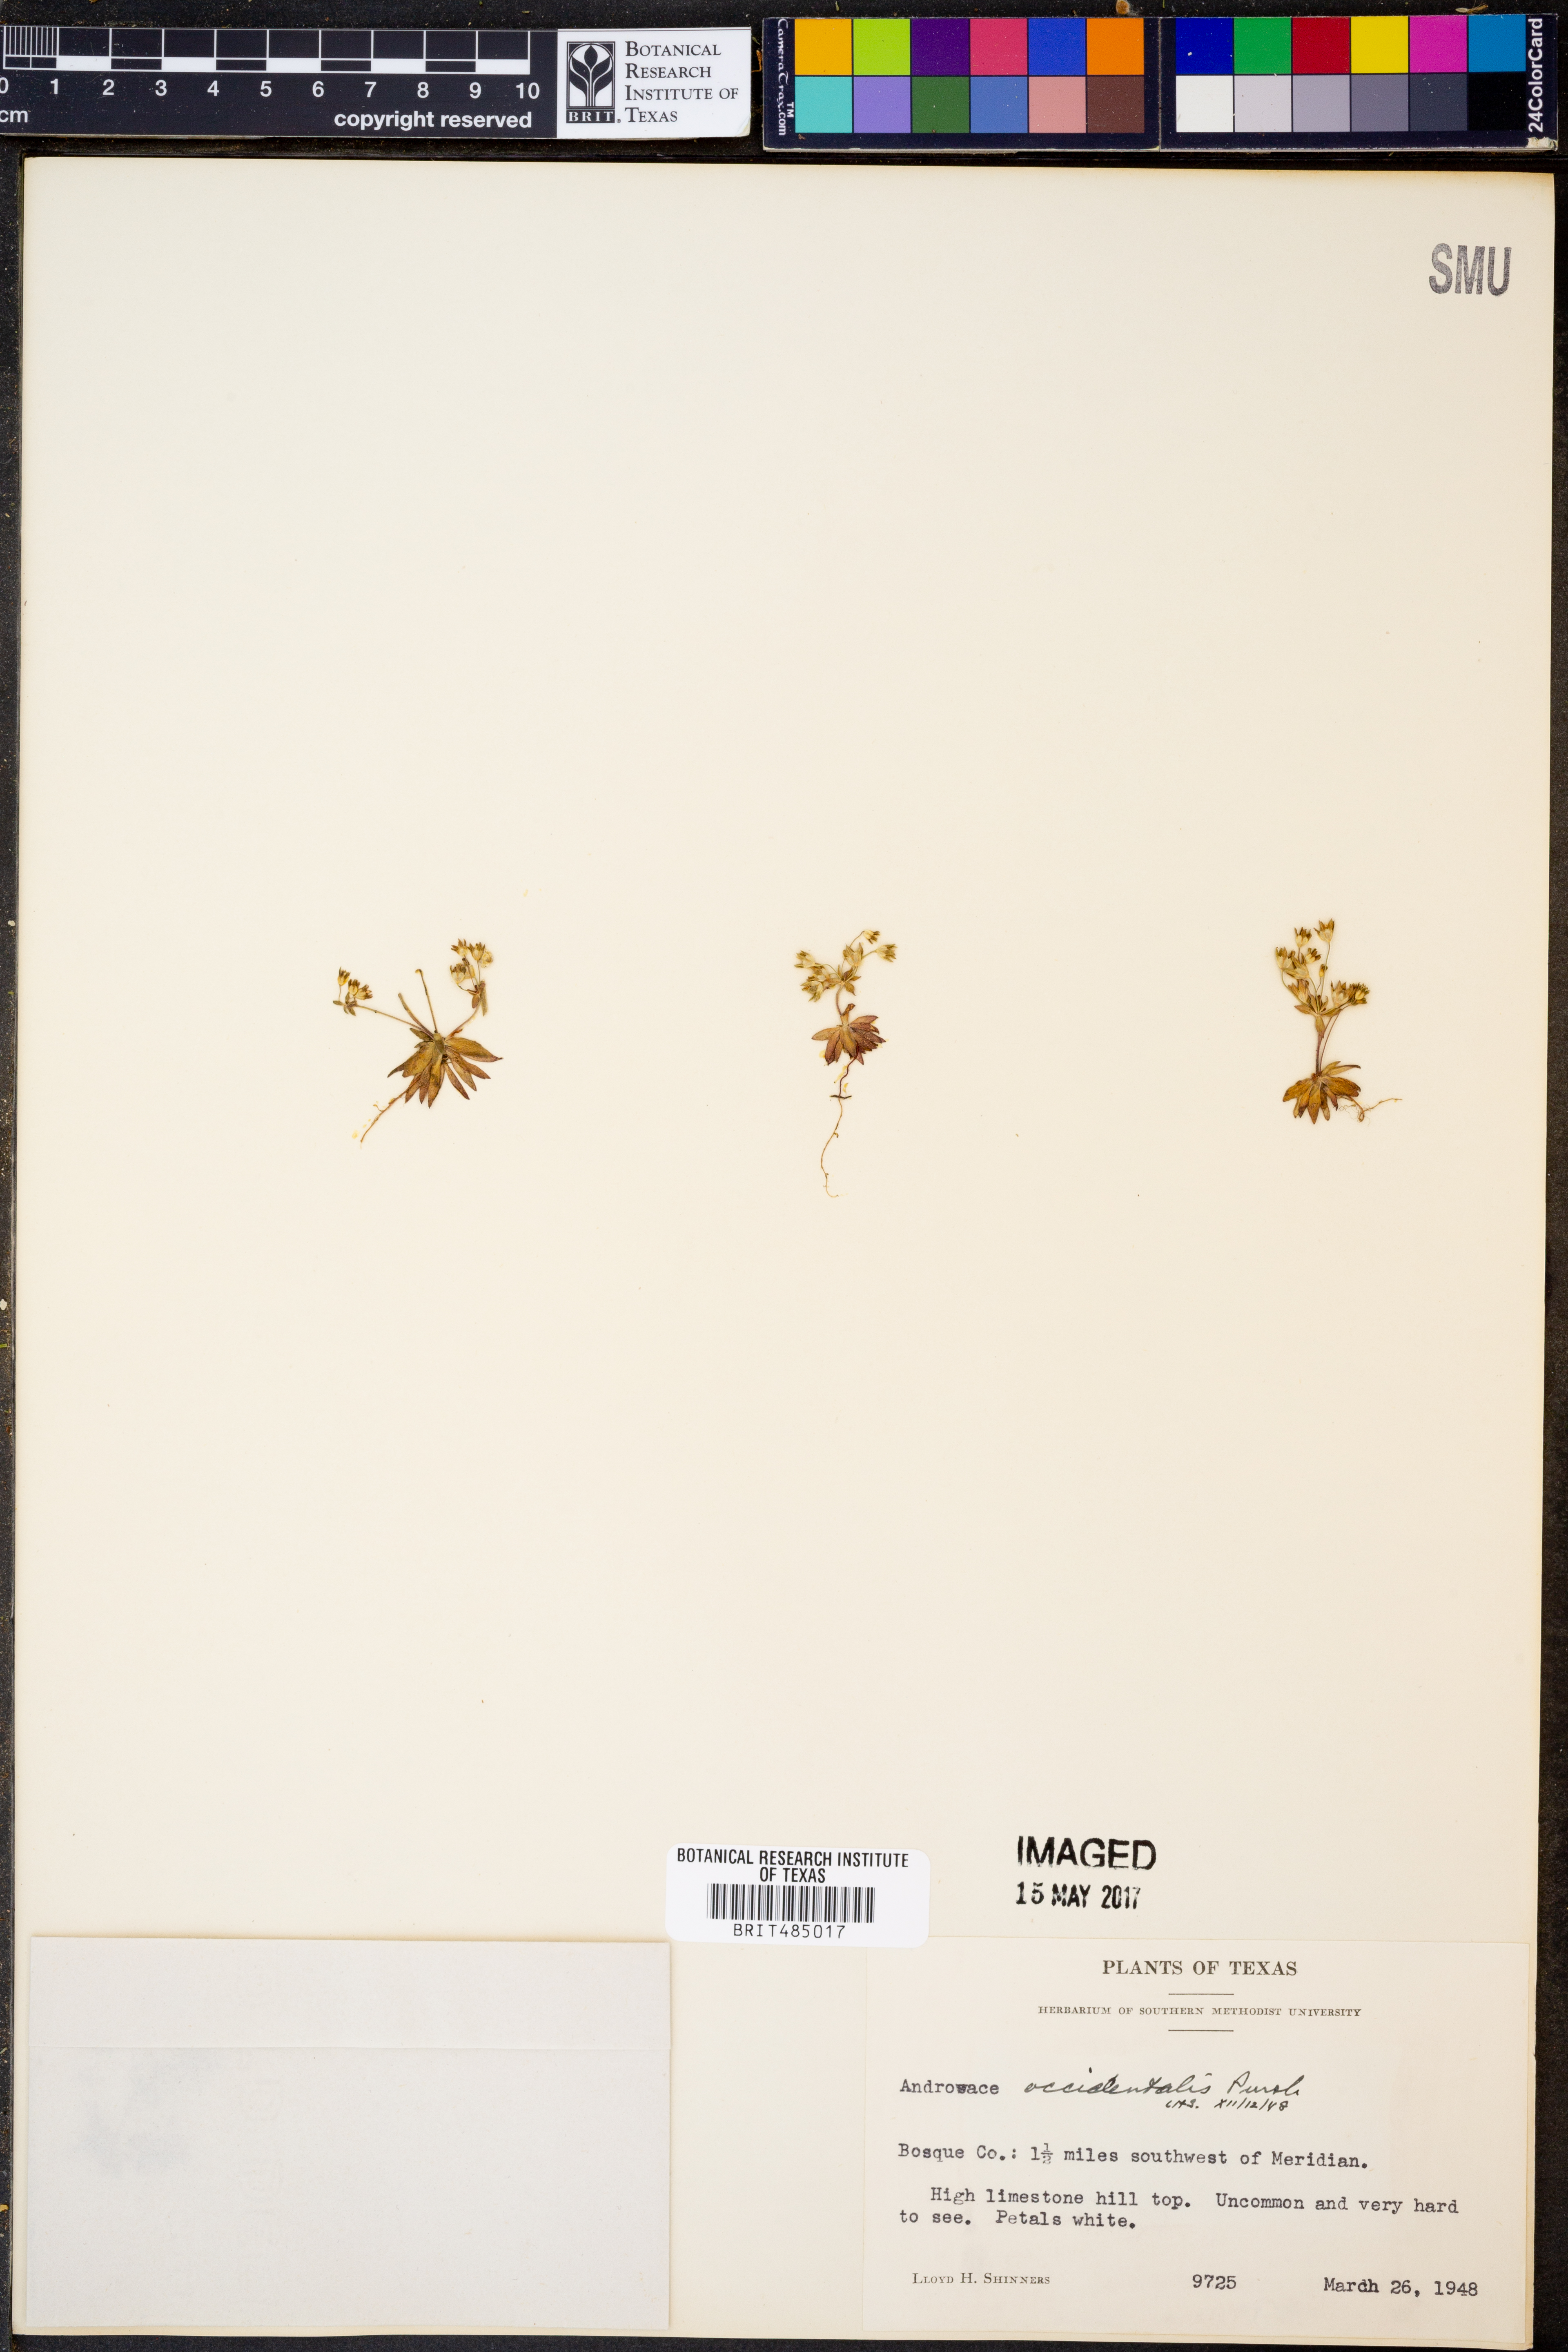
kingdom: Plantae
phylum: Tracheophyta
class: Magnoliopsida
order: Ericales
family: Primulaceae
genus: Androsace
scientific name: Androsace occidentalis
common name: West rock-jasmine
